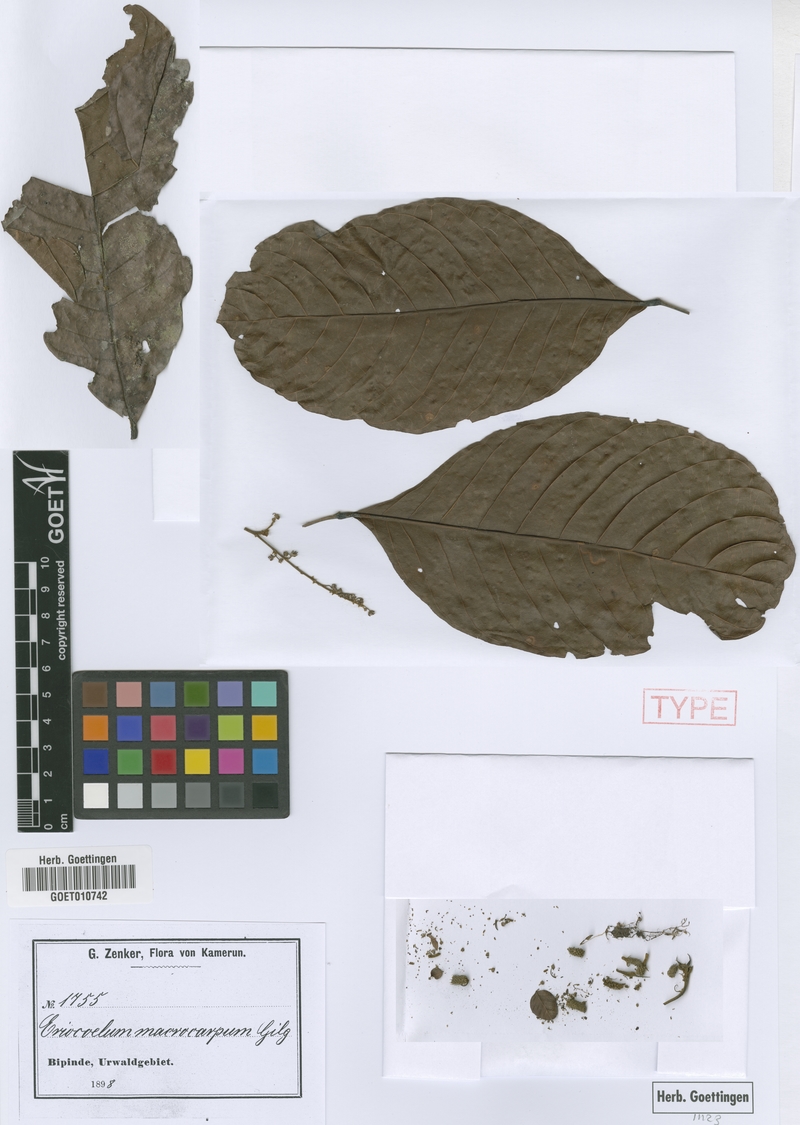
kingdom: Plantae
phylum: Tracheophyta
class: Magnoliopsida
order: Sapindales
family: Sapindaceae
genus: Eriocoelum
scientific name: Eriocoelum macrocarpum
